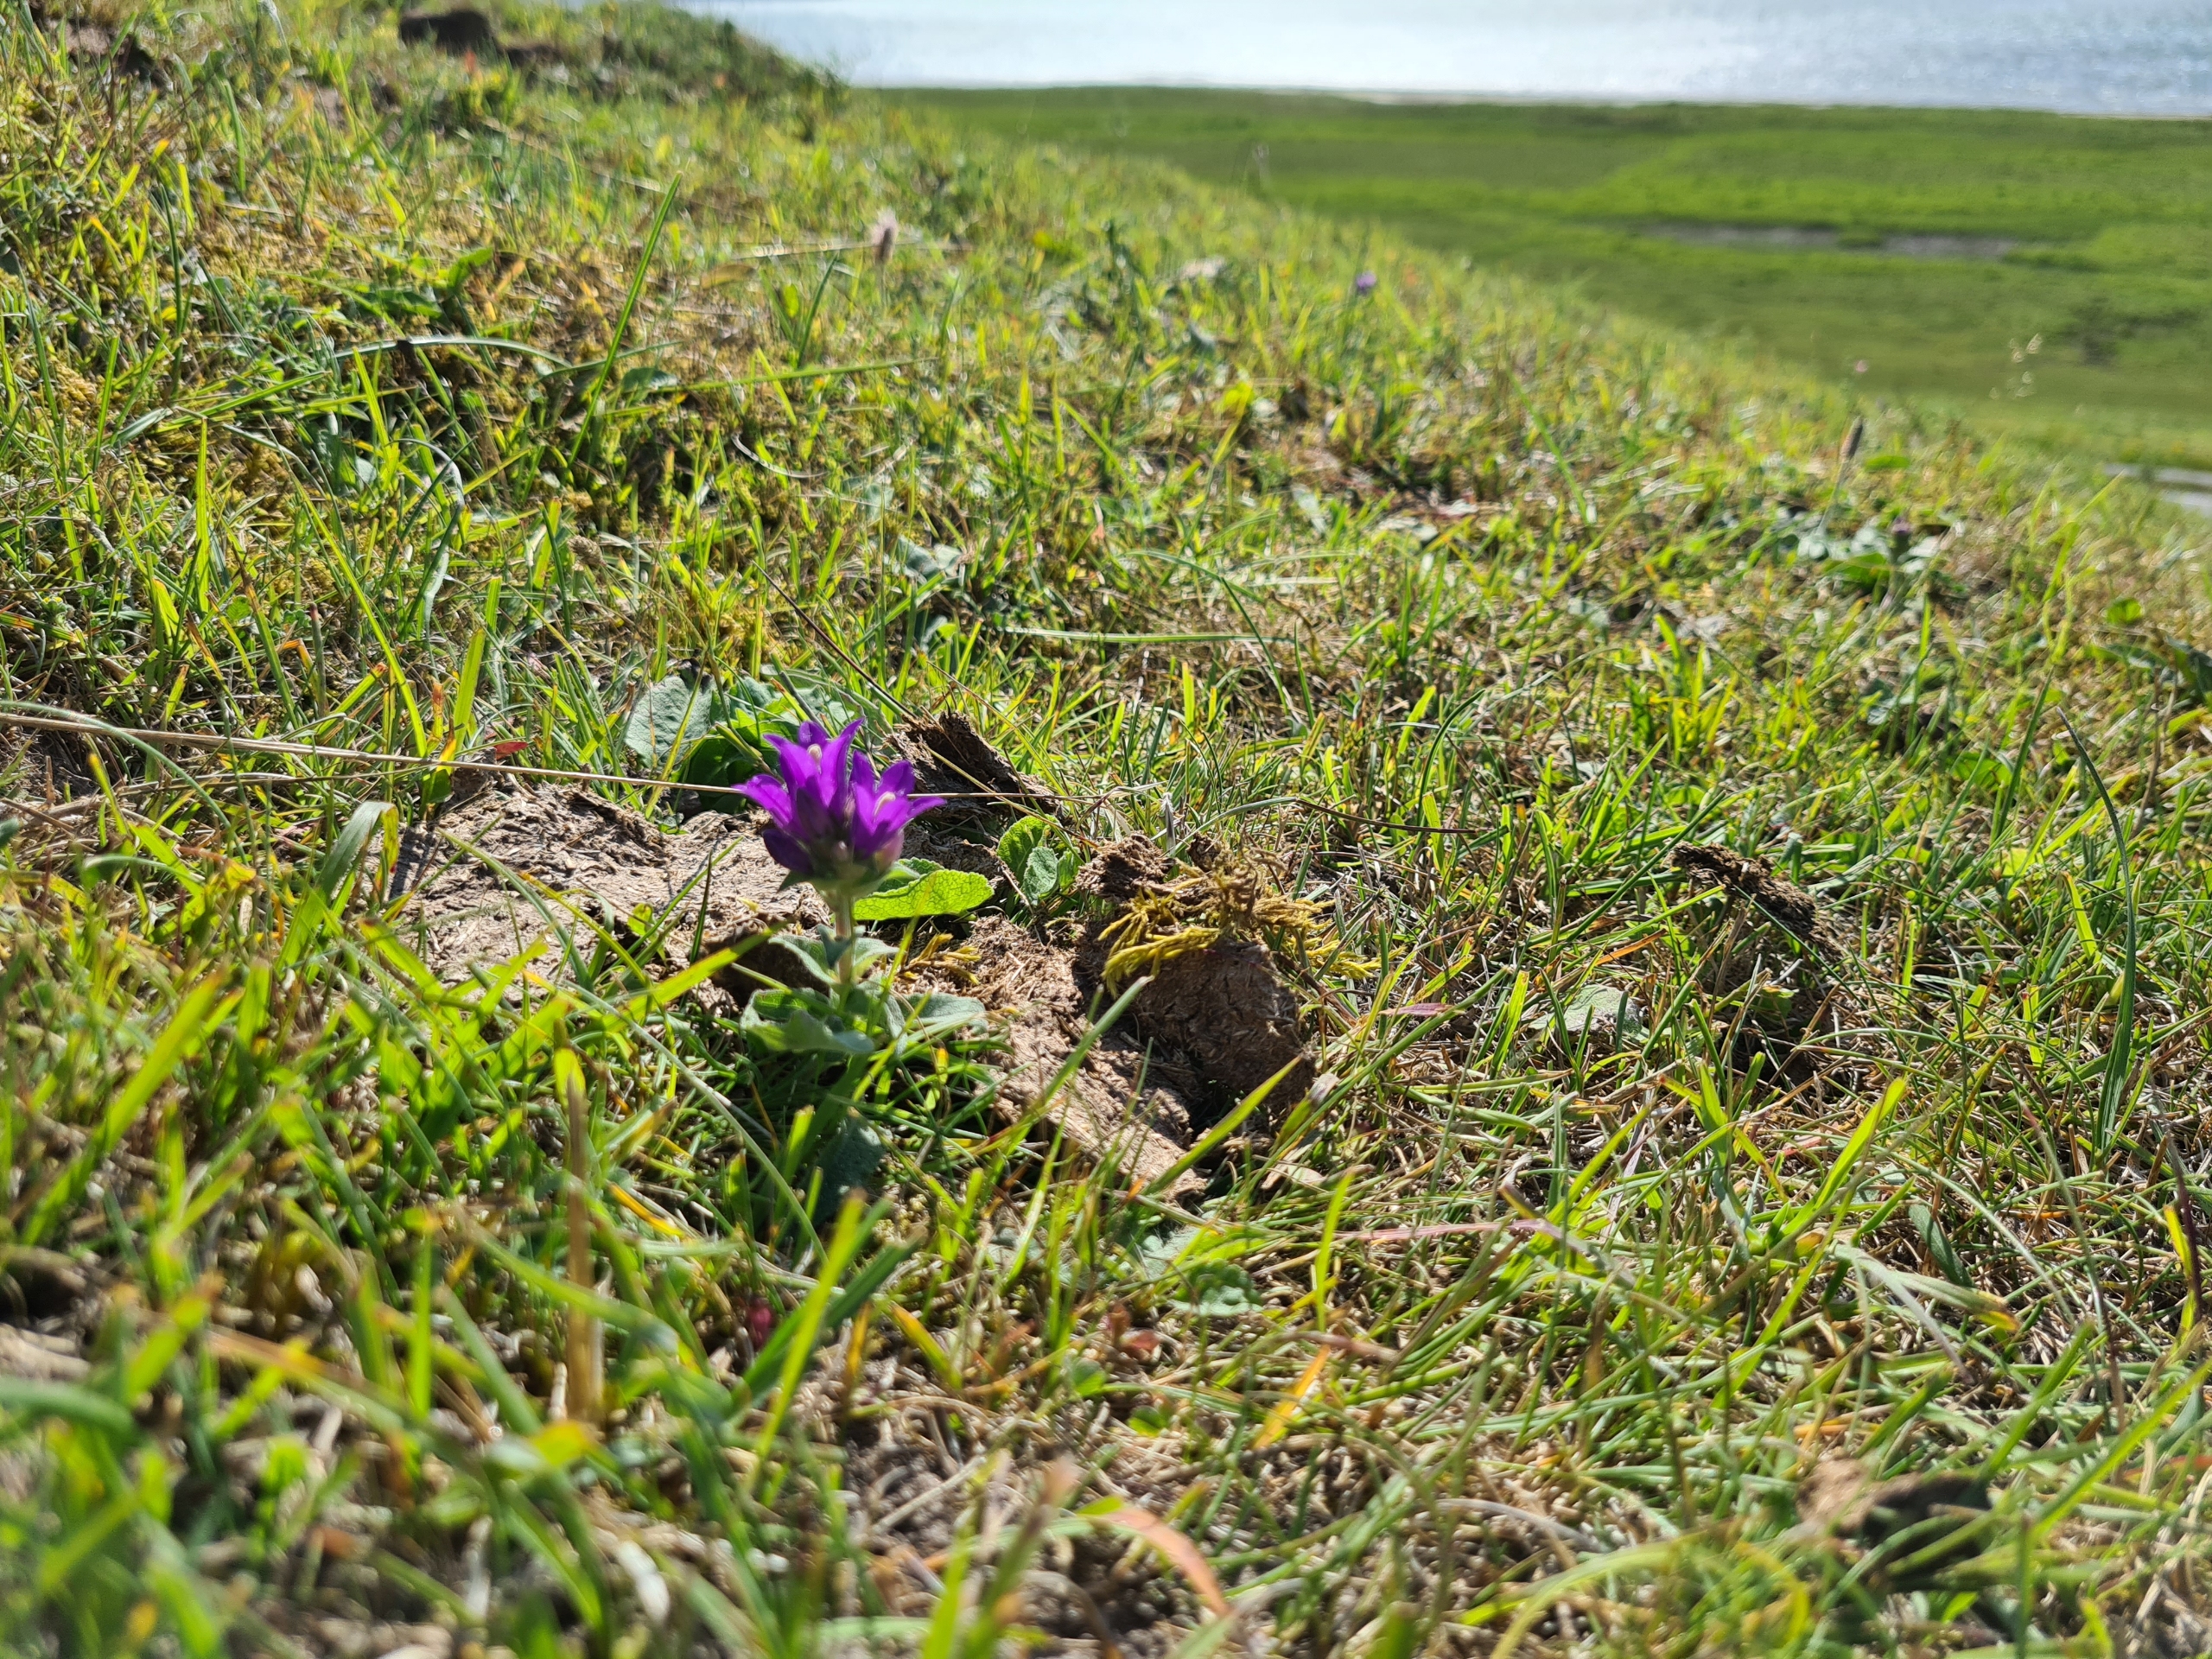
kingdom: Plantae
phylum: Tracheophyta
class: Magnoliopsida
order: Asterales
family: Campanulaceae
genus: Campanula
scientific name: Campanula glomerata
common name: Nøgleblomstret klokke
